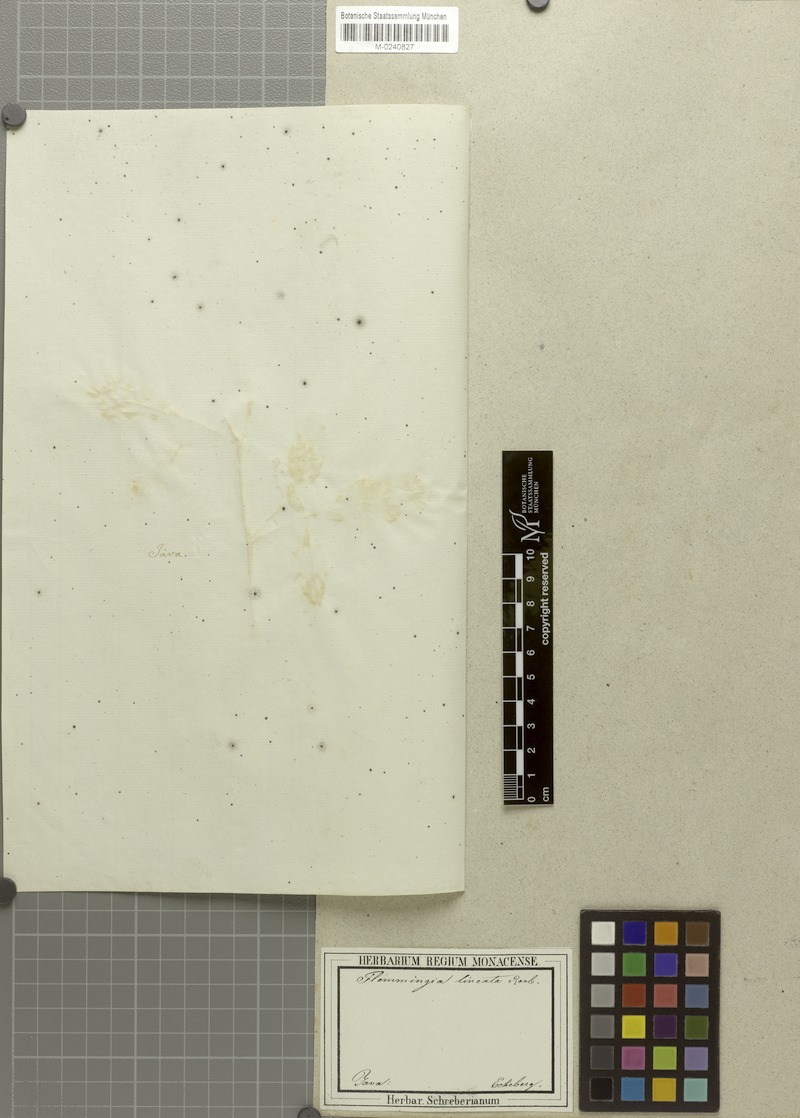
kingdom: Plantae
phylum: Tracheophyta
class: Magnoliopsida
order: Fabales
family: Fabaceae
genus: Flemingia
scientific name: Flemingia lineata
